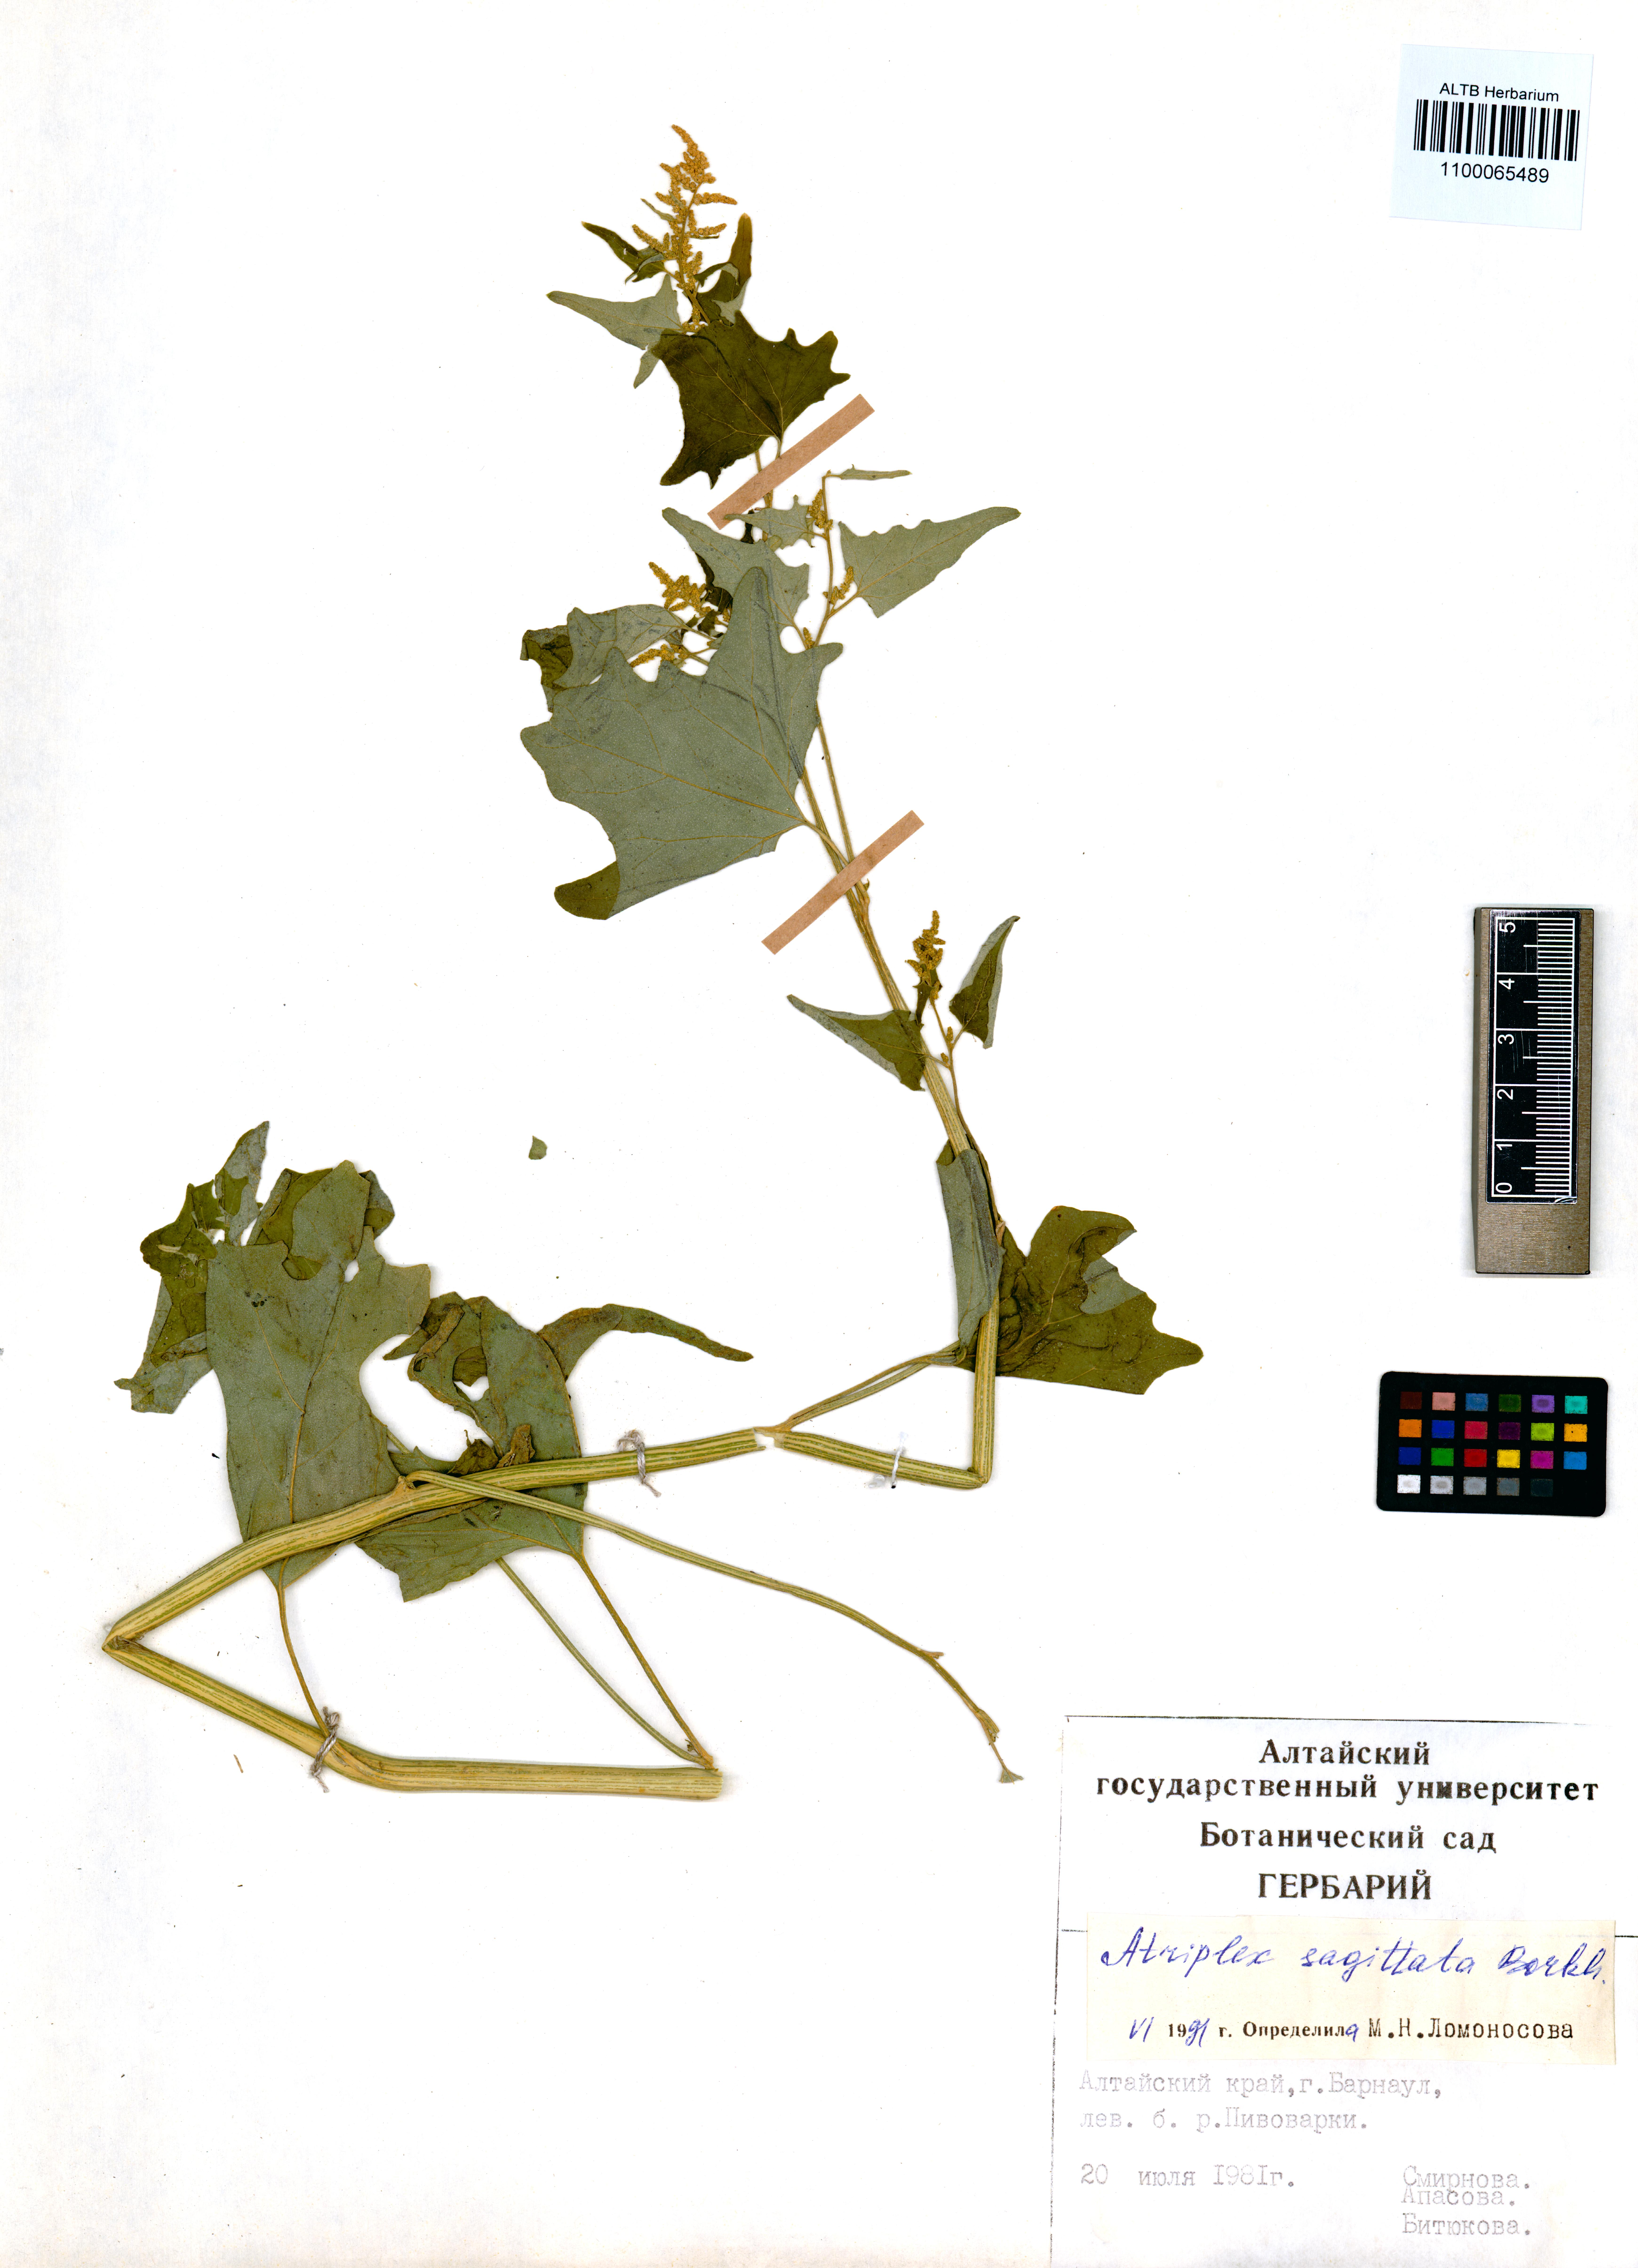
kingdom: Plantae
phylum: Tracheophyta
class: Magnoliopsida
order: Caryophyllales
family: Amaranthaceae
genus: Atriplex
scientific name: Atriplex sagittata
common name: Purple orache
